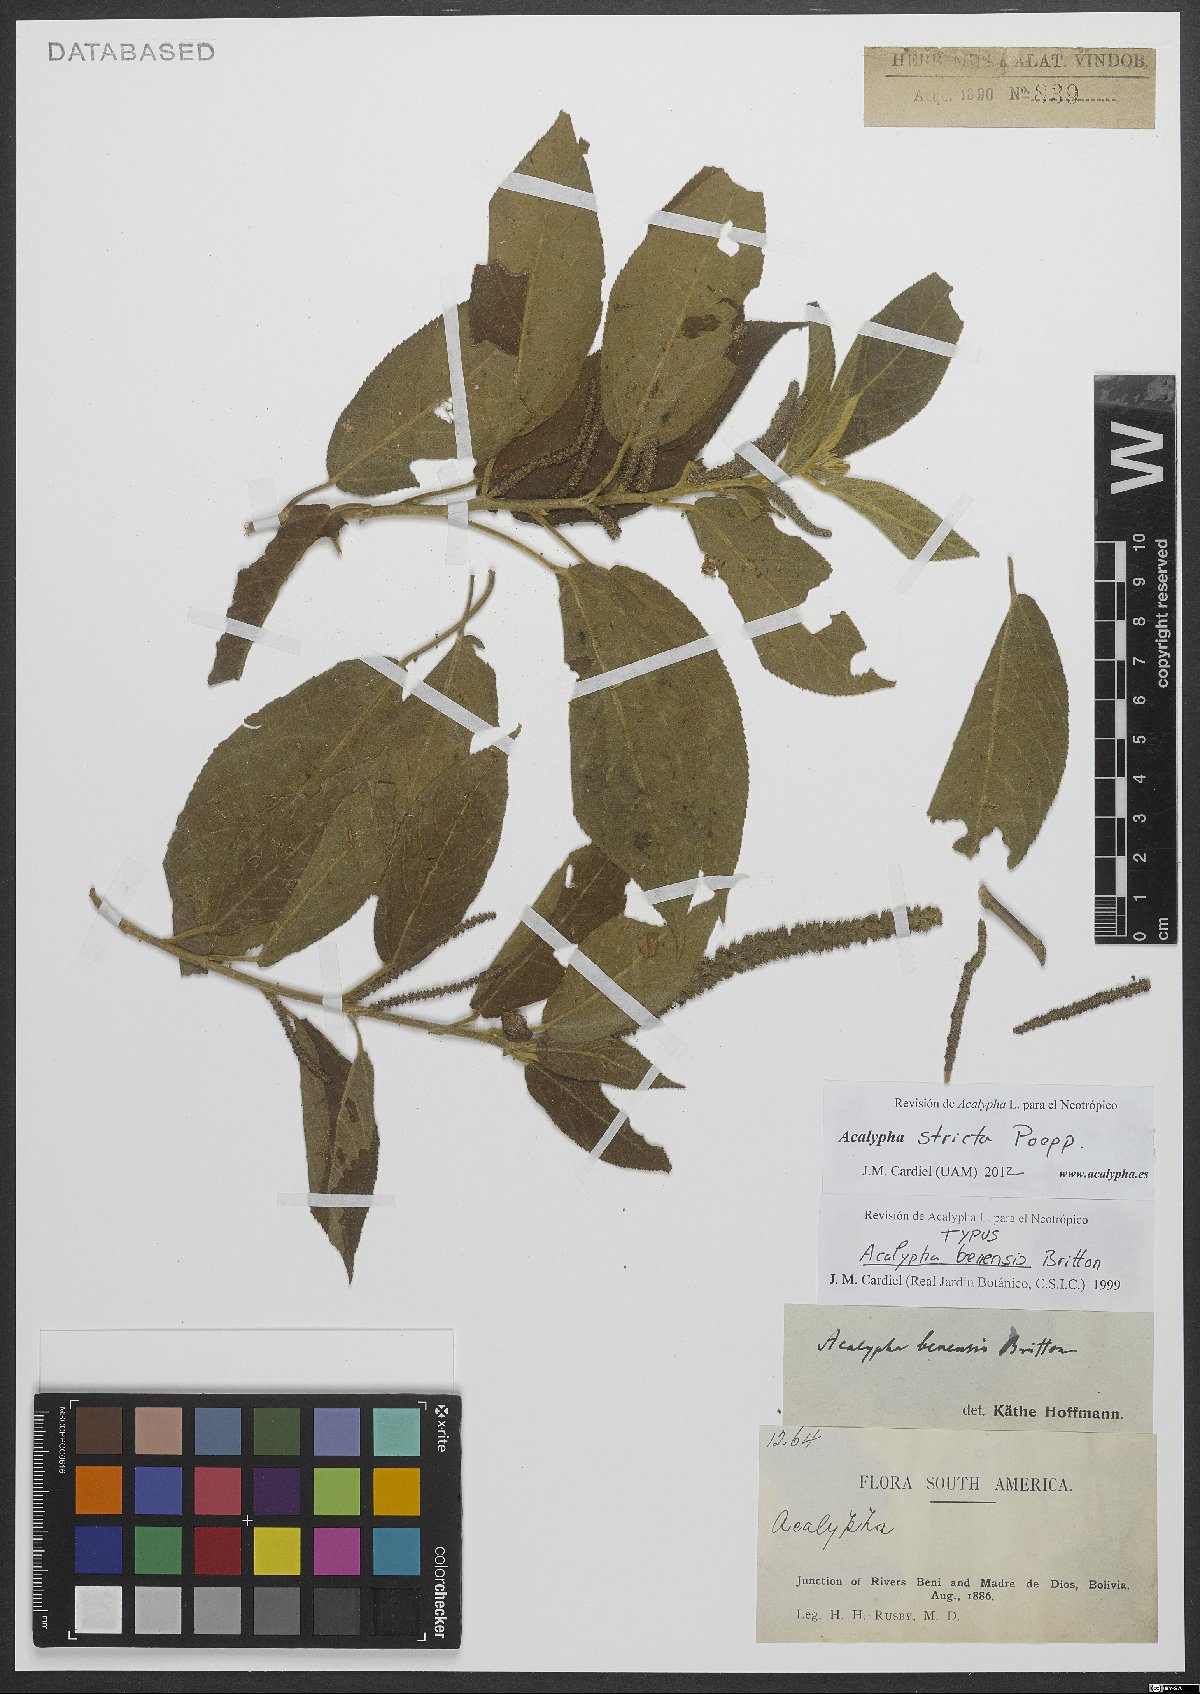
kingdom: Plantae
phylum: Tracheophyta
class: Magnoliopsida
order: Malpighiales
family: Euphorbiaceae
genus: Acalypha
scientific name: Acalypha stricta
